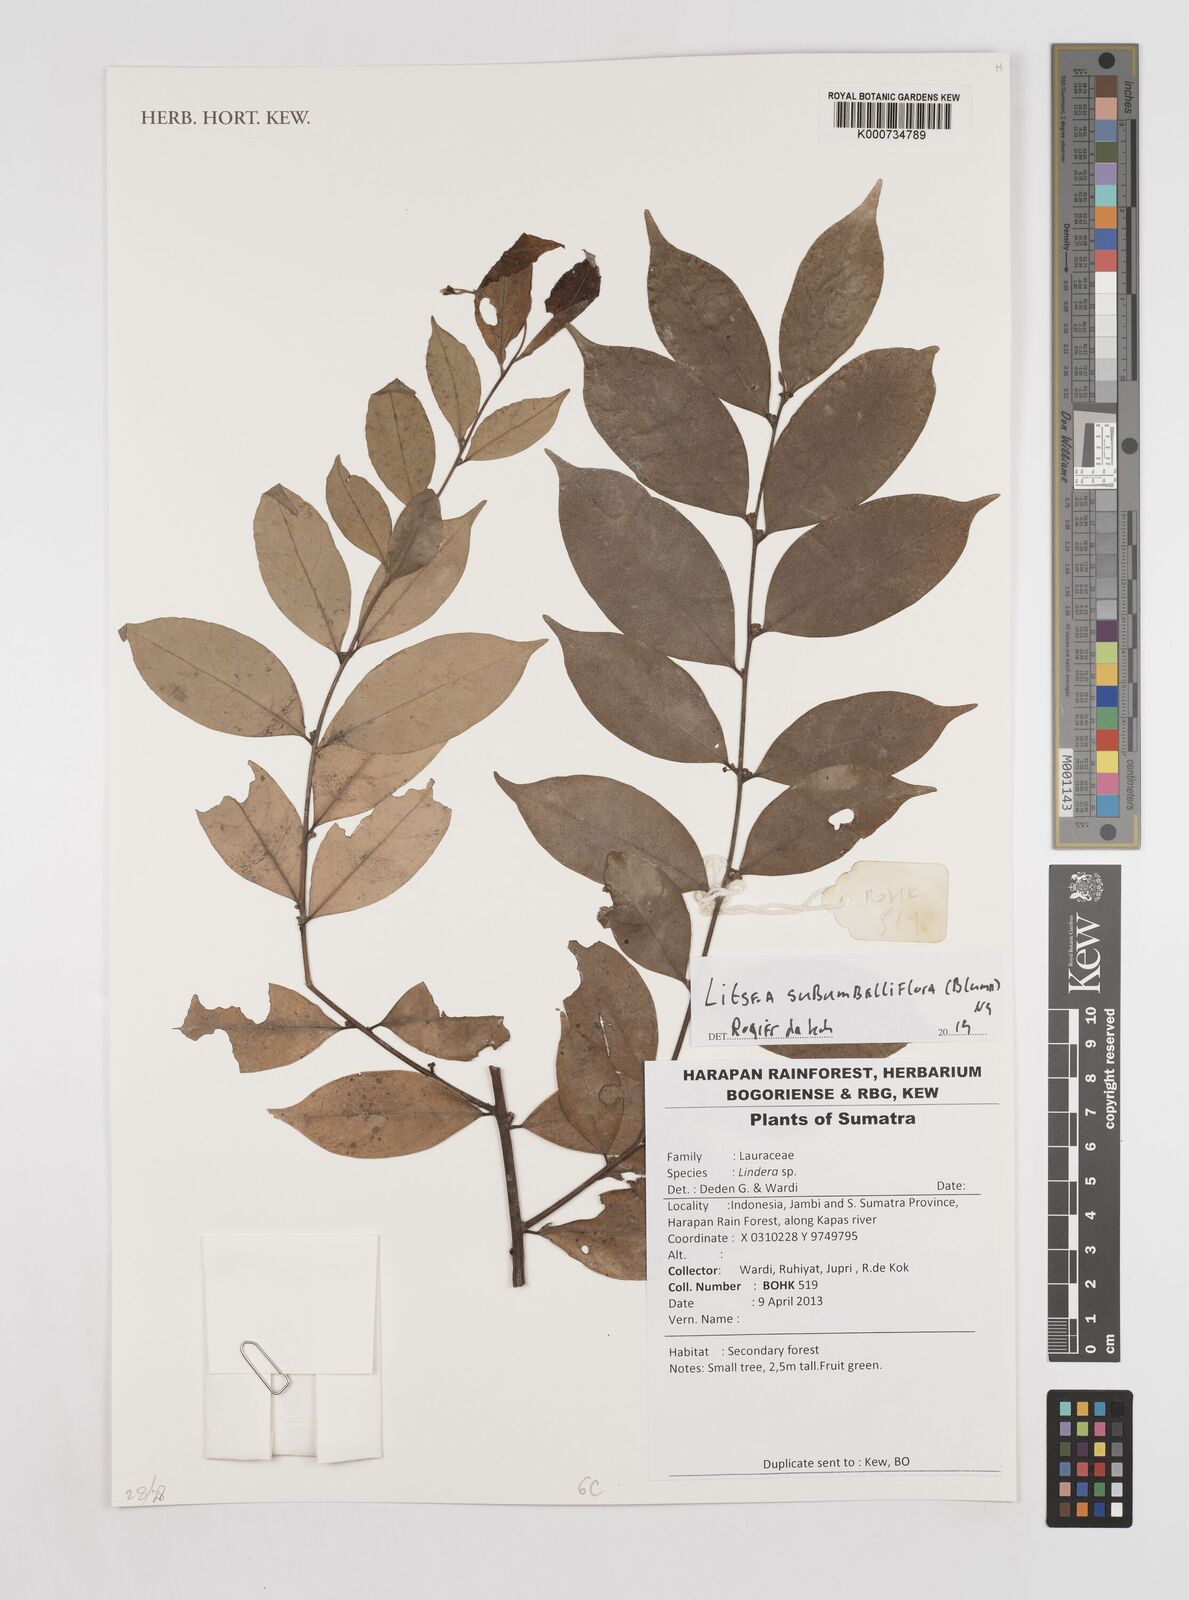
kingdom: Plantae
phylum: Tracheophyta
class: Magnoliopsida
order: Laurales
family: Lauraceae
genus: Litsea
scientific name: Litsea subumbelliflora
